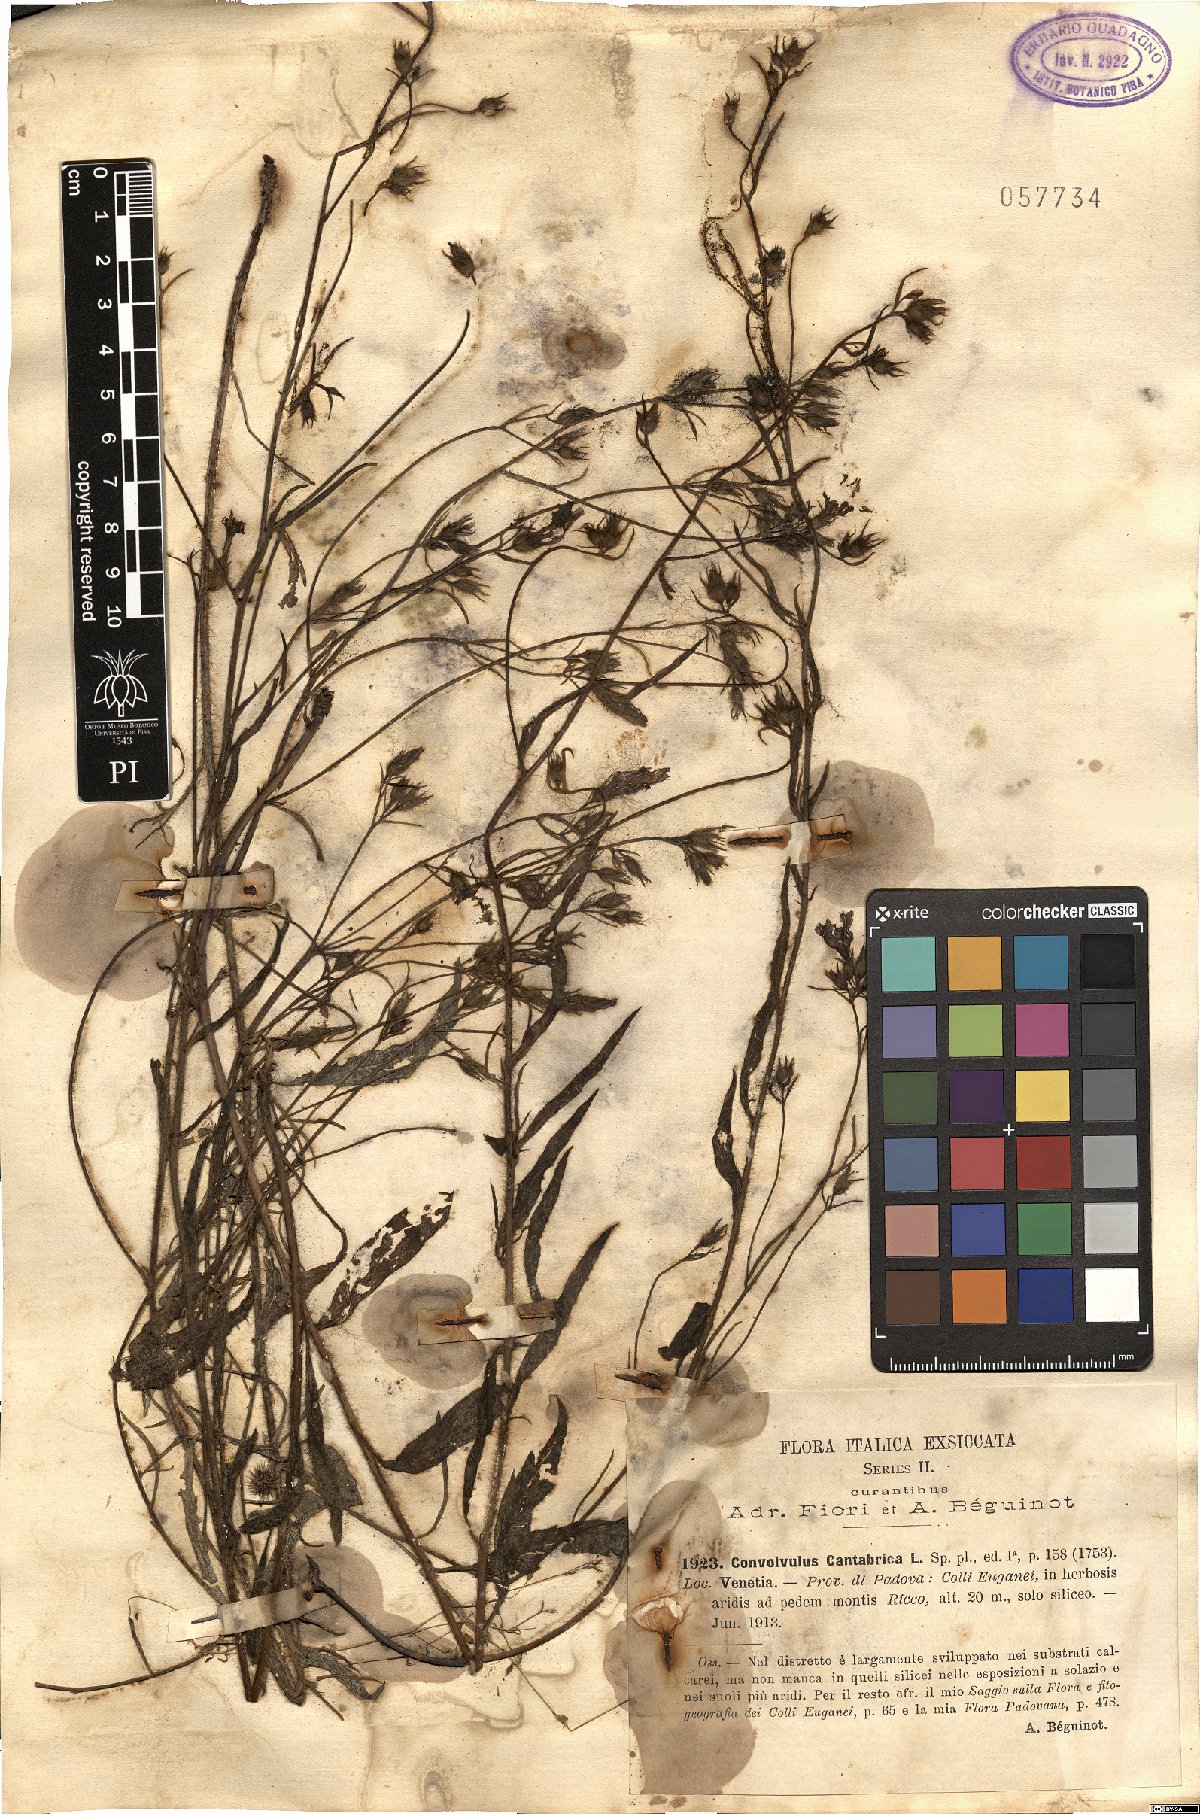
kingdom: Plantae
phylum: Tracheophyta
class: Magnoliopsida
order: Solanales
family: Convolvulaceae
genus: Convolvulus
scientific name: Convolvulus cantabrica
